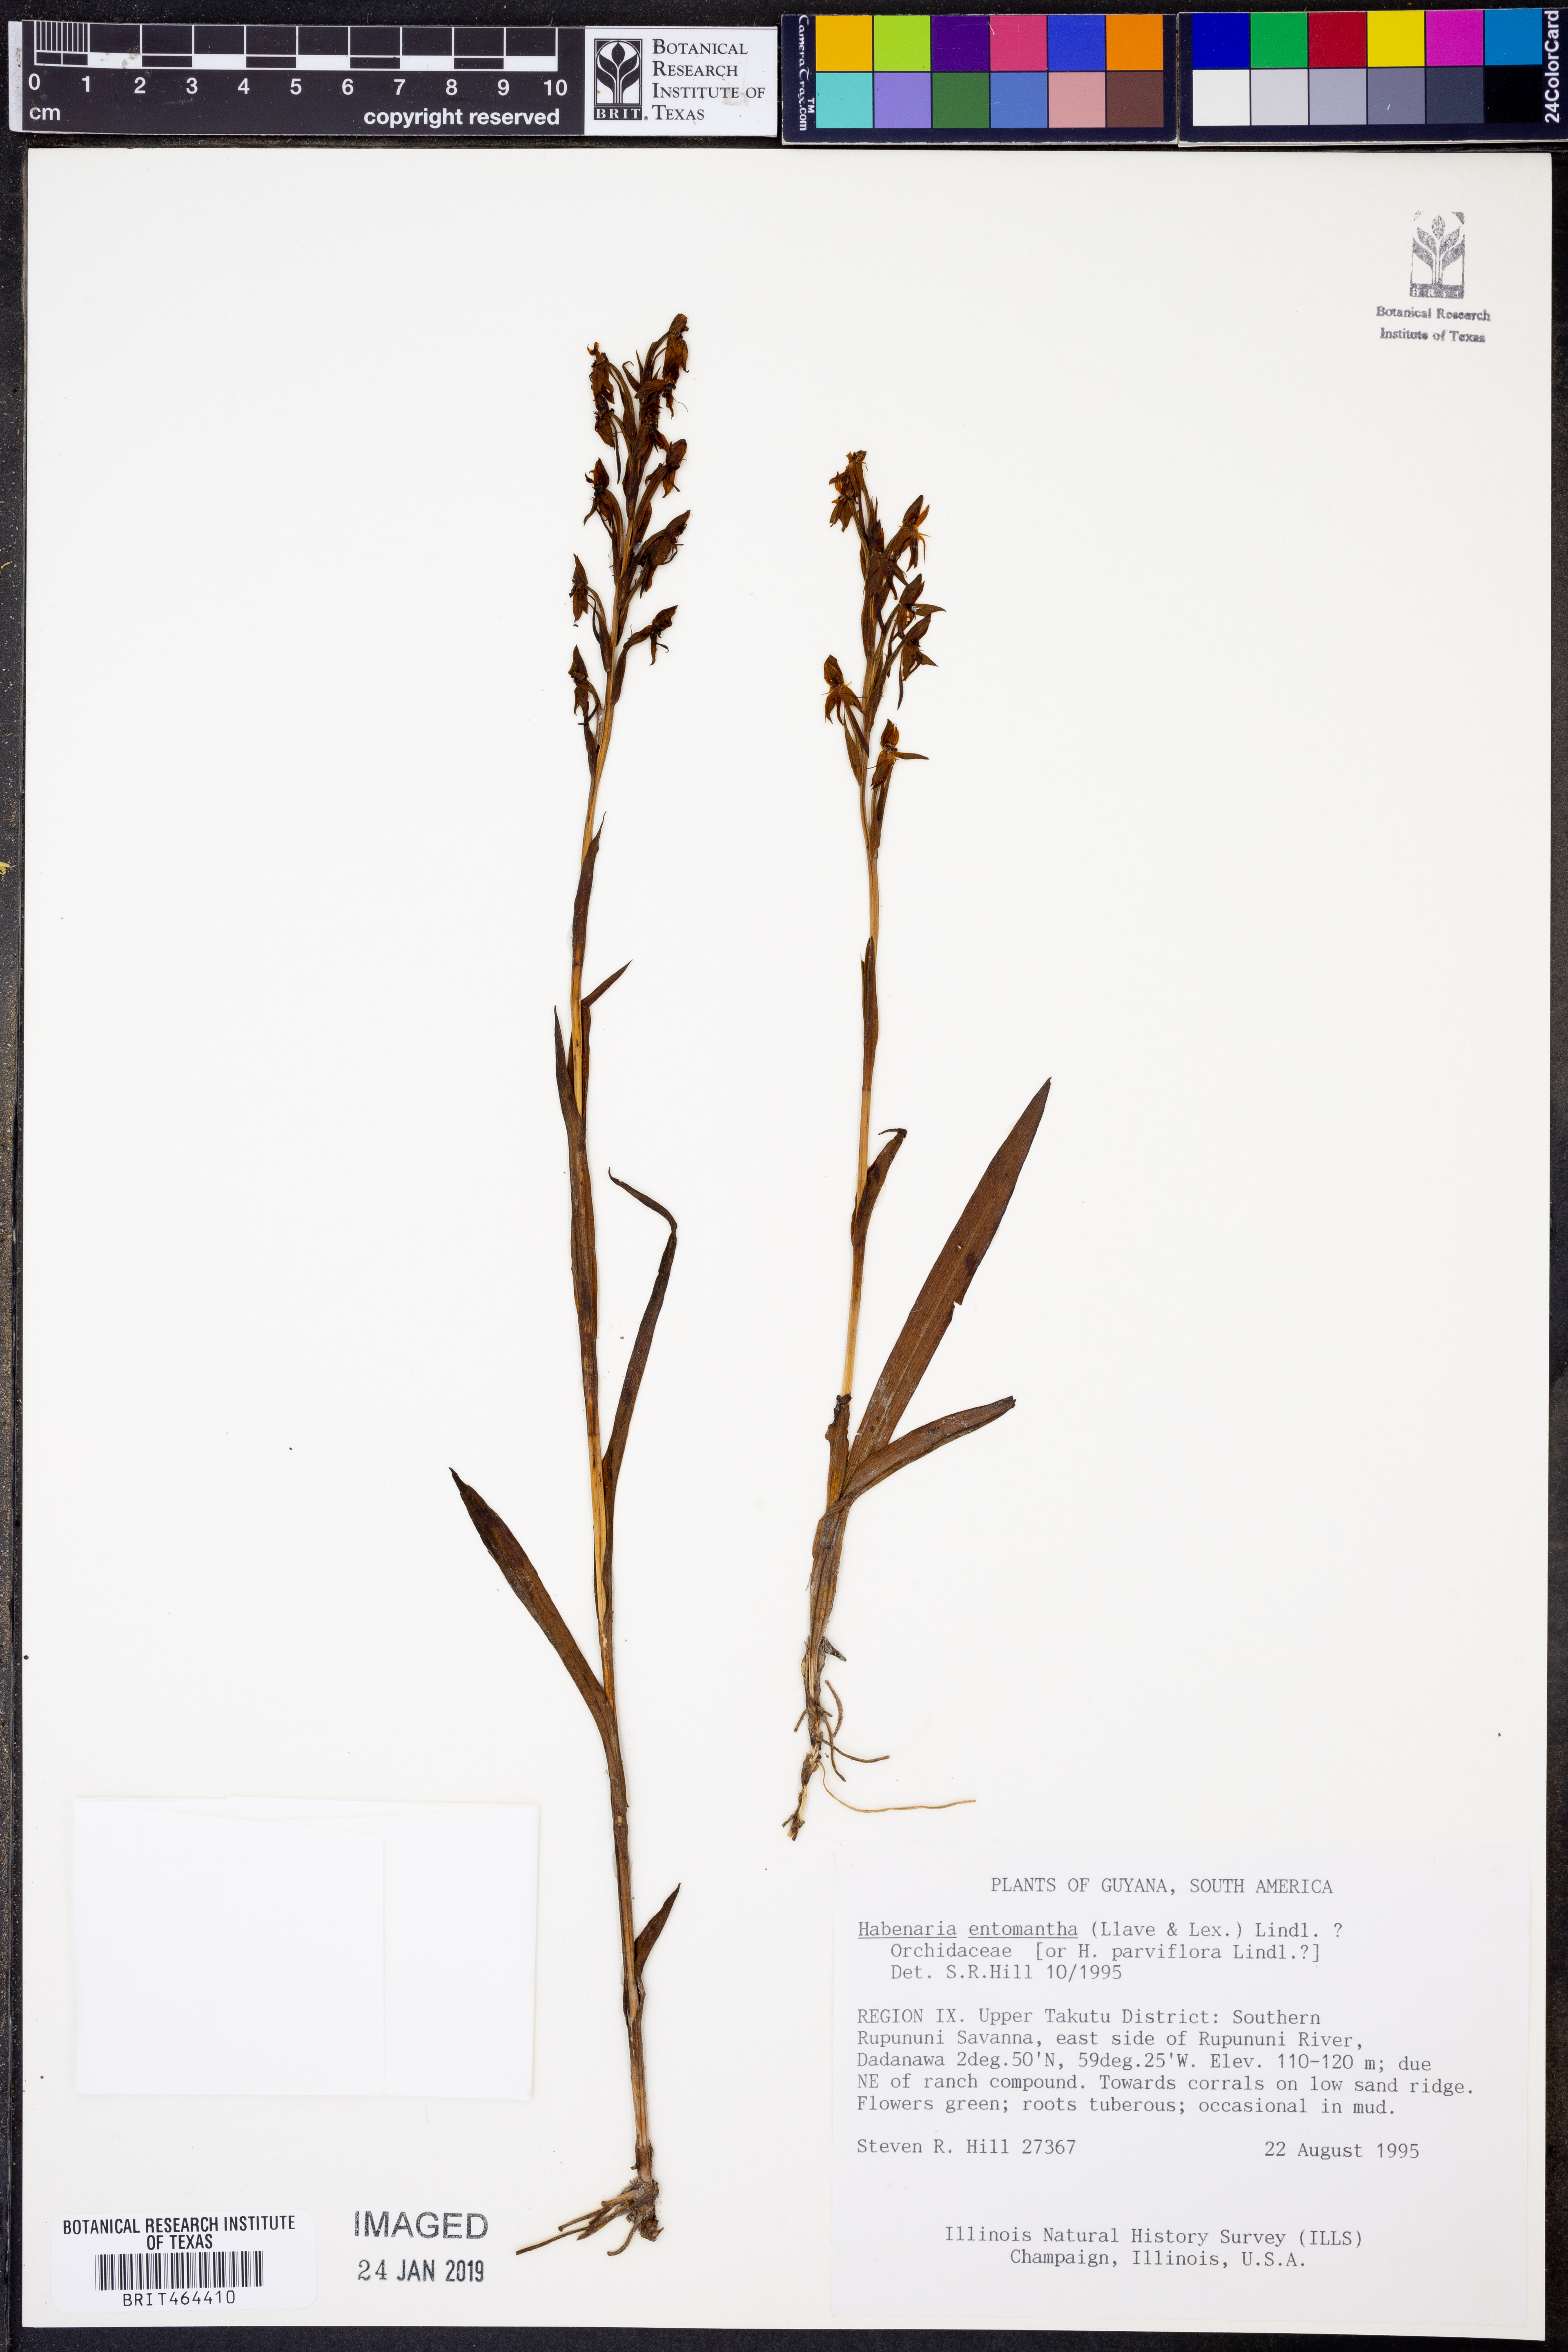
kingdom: Plantae
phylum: Tracheophyta
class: Liliopsida
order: Asparagales
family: Orchidaceae
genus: Habenaria
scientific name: Habenaria entomantha
